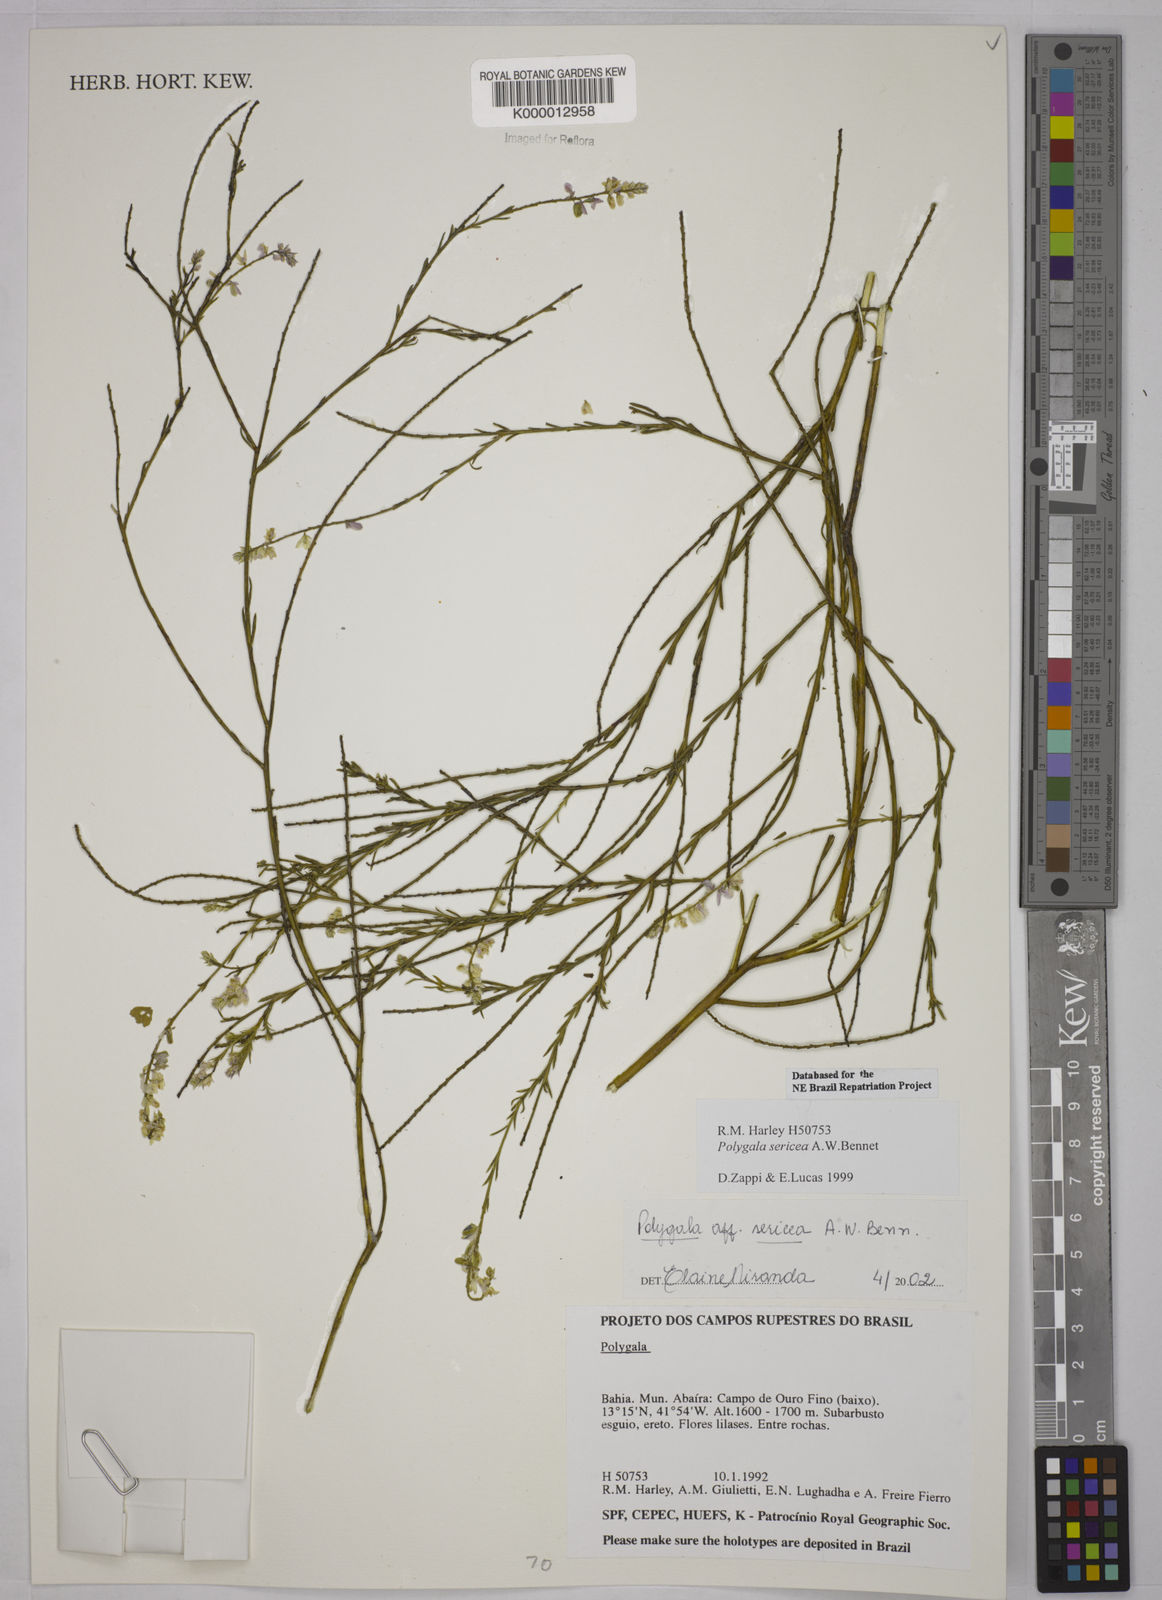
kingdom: Plantae
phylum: Tracheophyta
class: Magnoliopsida
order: Fabales
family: Polygalaceae
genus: Polygala
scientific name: Polygala sericea
